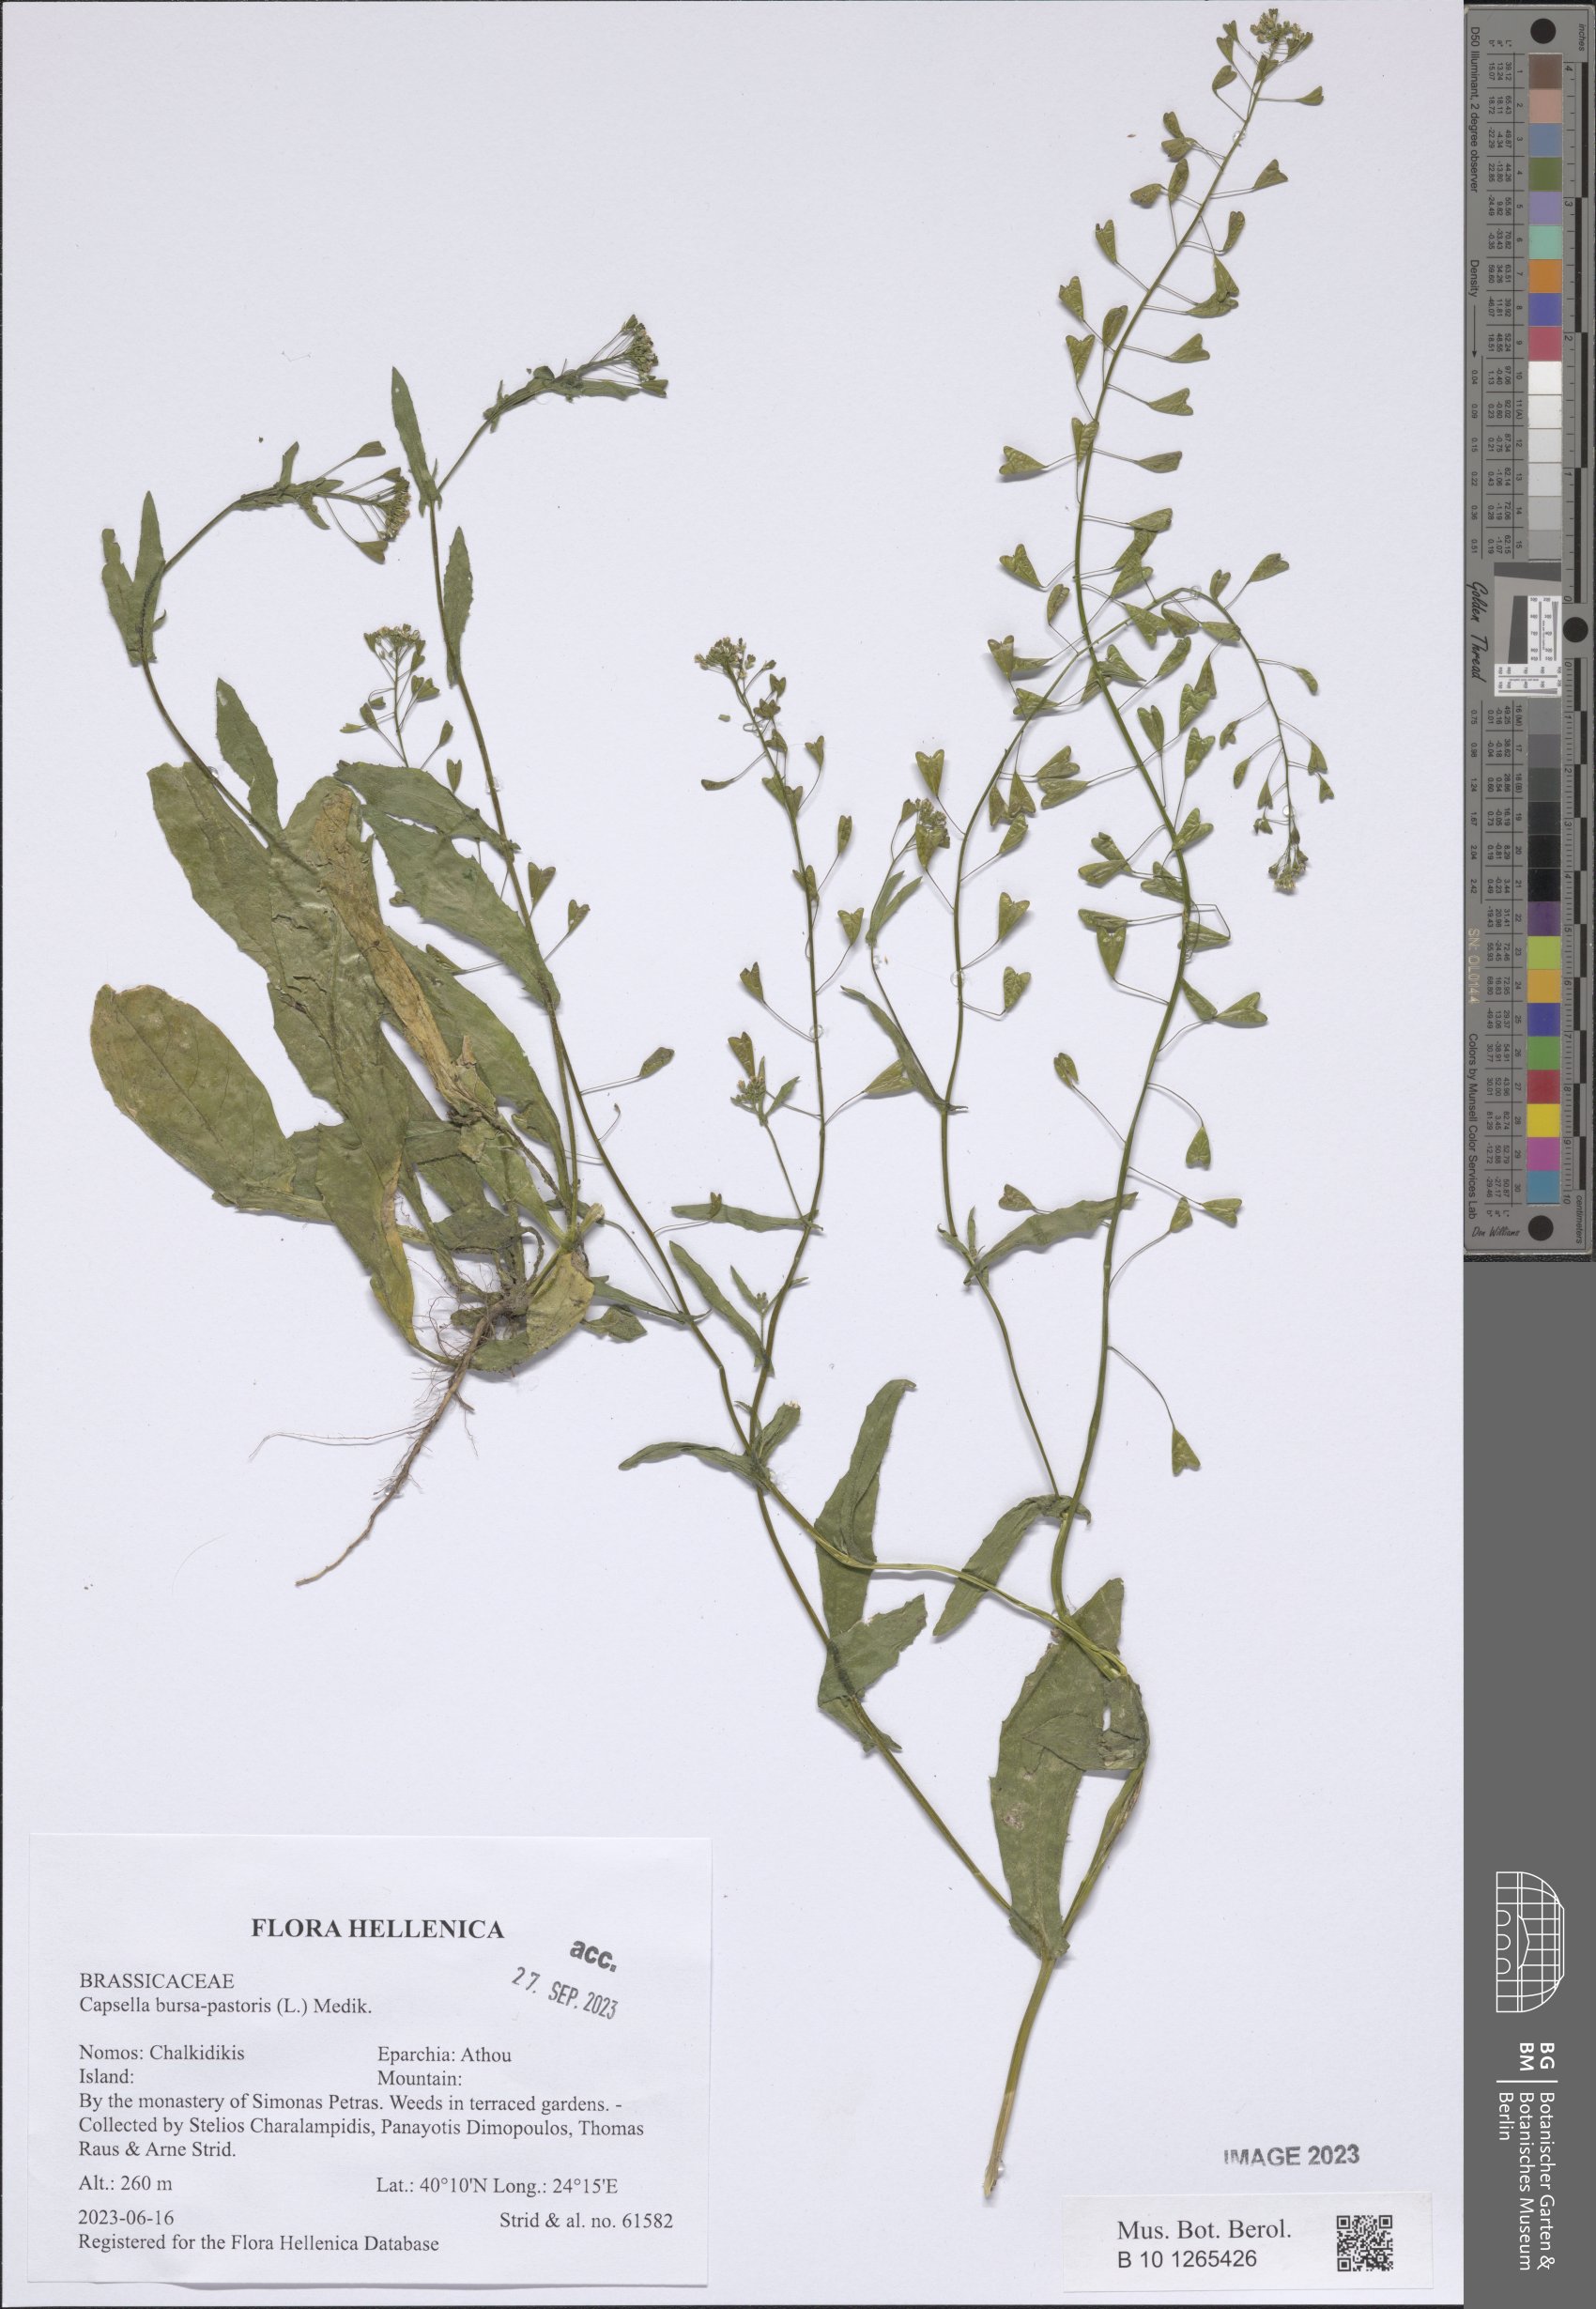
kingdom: Plantae
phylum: Tracheophyta
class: Magnoliopsida
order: Brassicales
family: Brassicaceae
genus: Capsella
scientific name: Capsella bursa-pastoris
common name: Shepherd's purse
